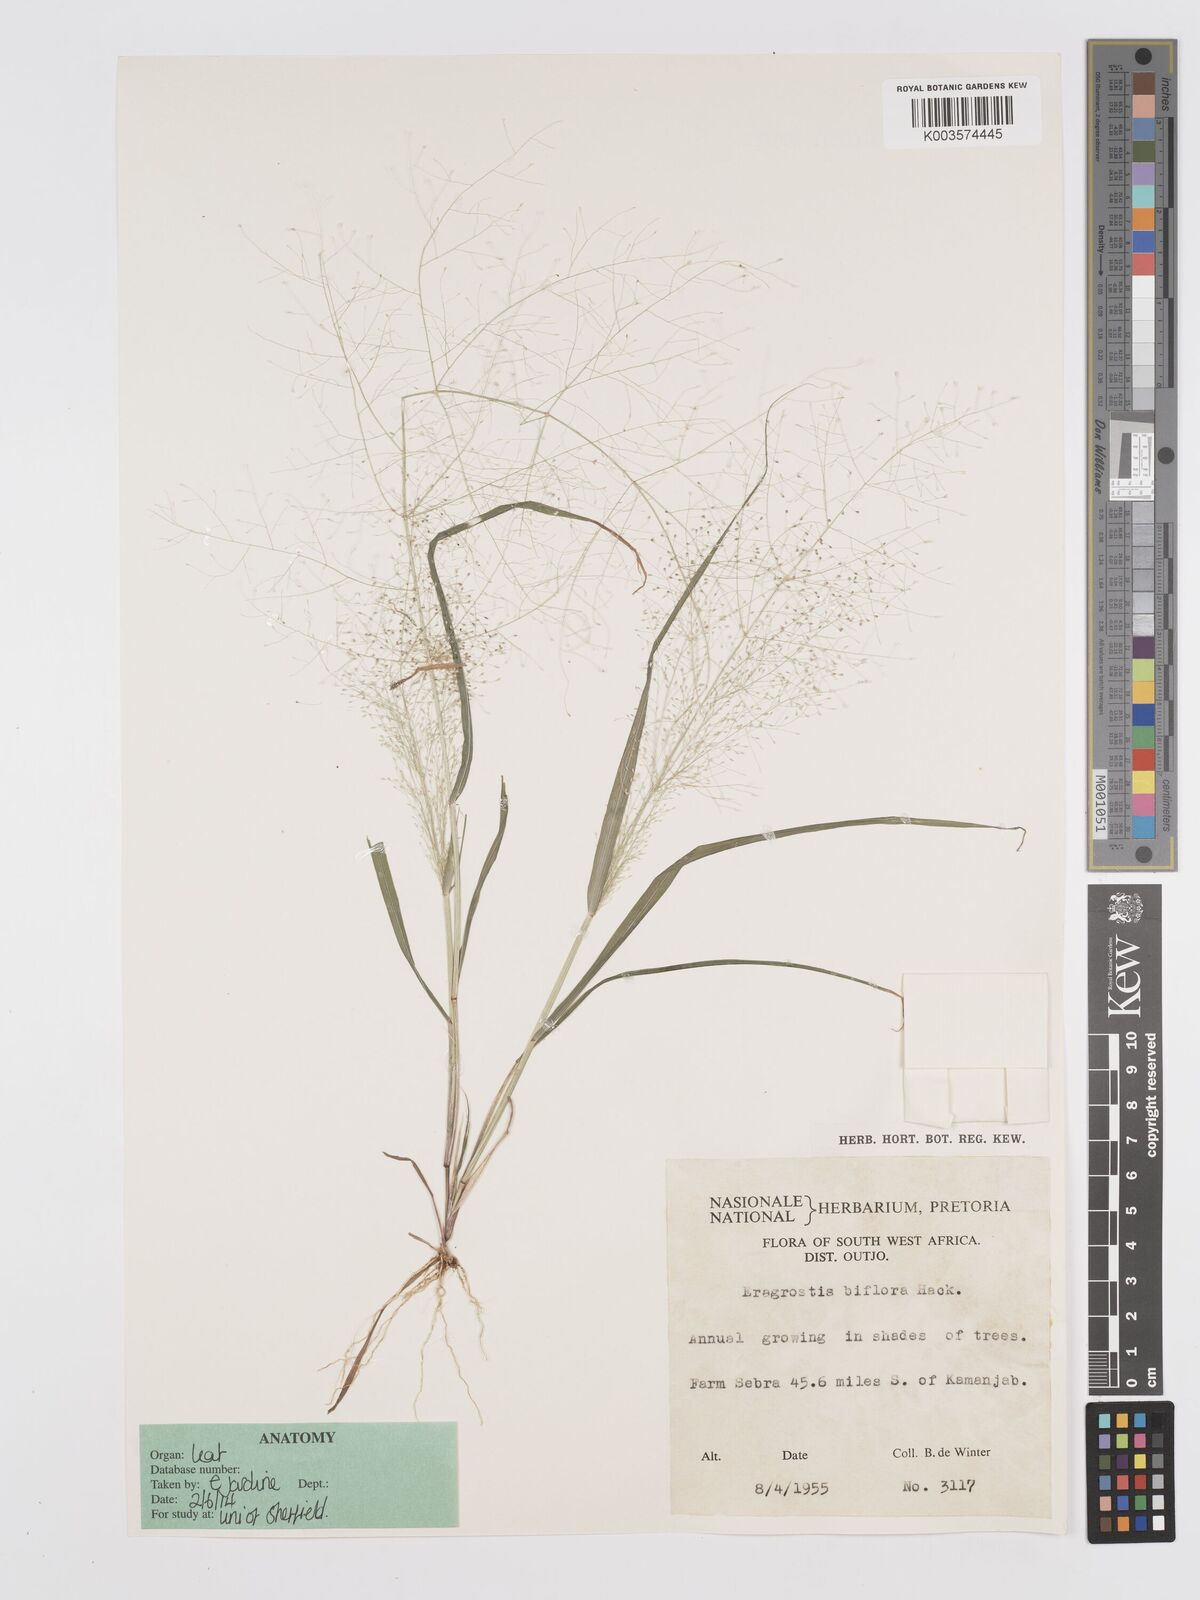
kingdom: Plantae
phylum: Tracheophyta
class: Liliopsida
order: Poales
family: Poaceae
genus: Eragrostis
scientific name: Eragrostis biflora
